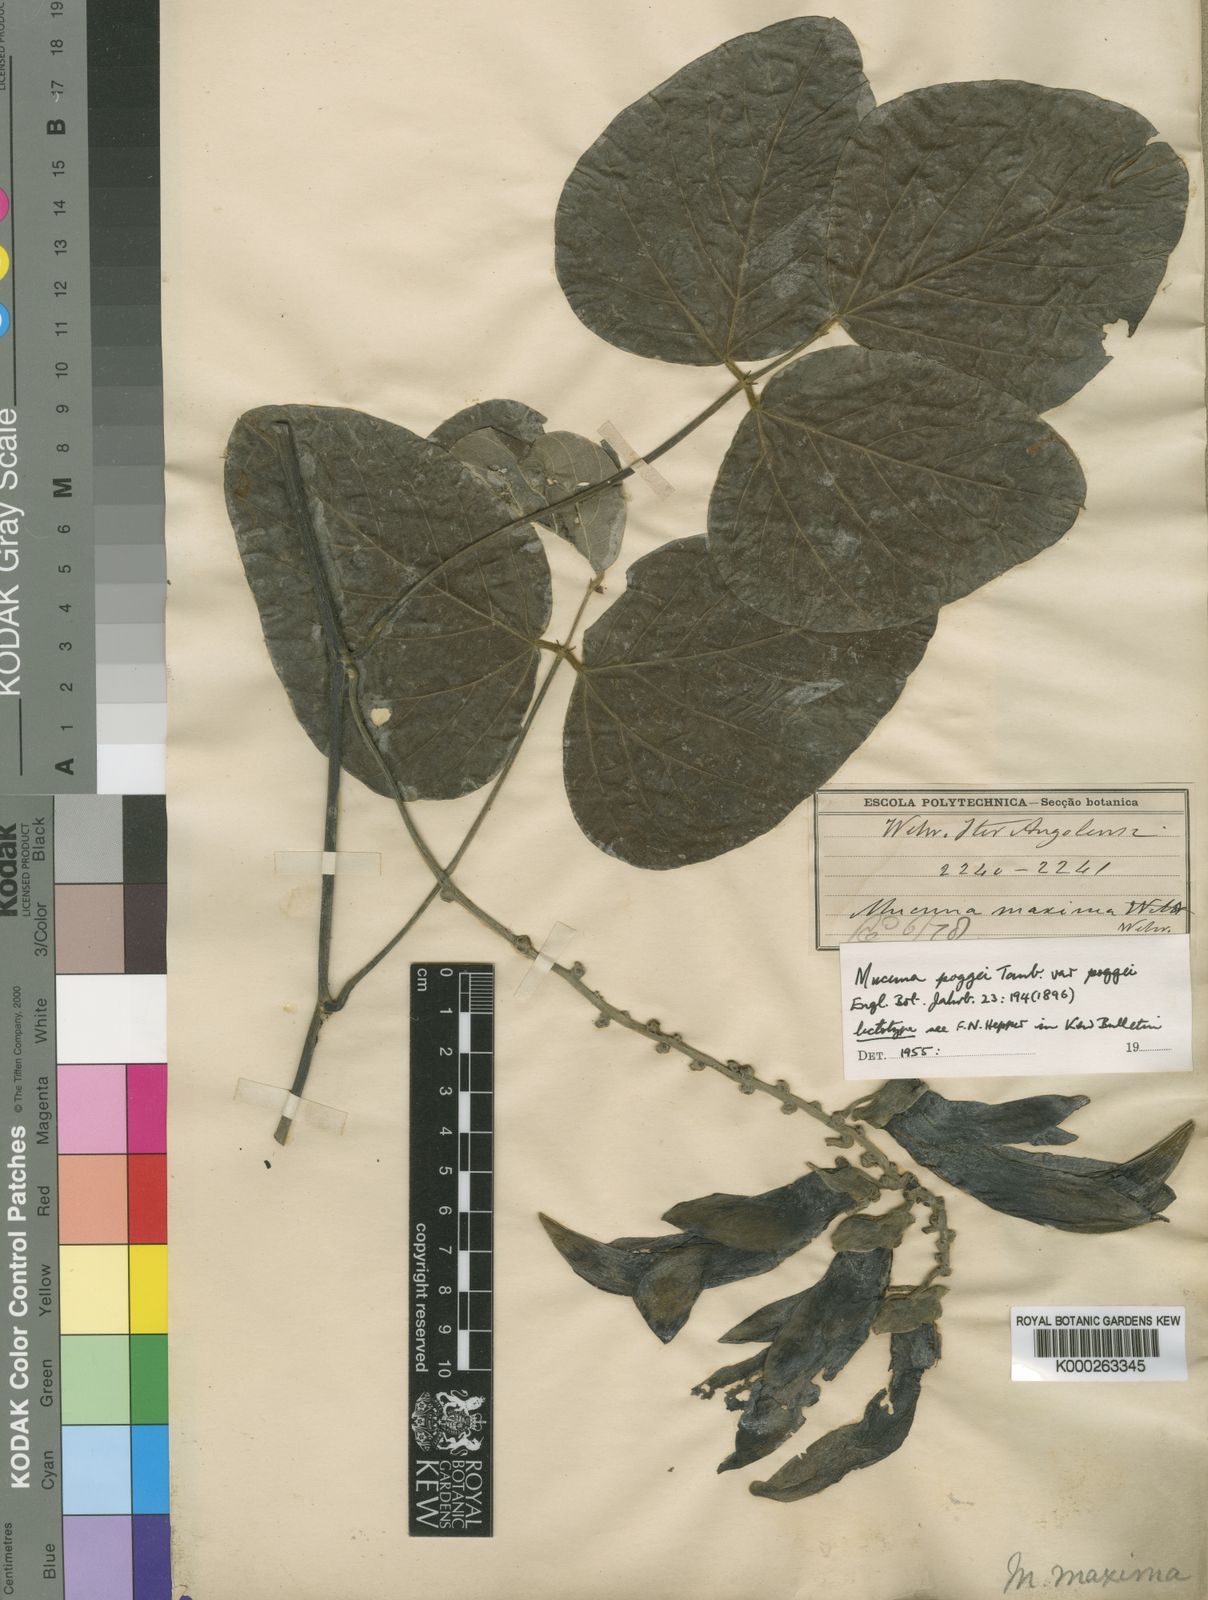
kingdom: Plantae
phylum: Tracheophyta
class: Magnoliopsida
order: Fabales
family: Fabaceae
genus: Mucuna
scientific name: Mucuna poggei
